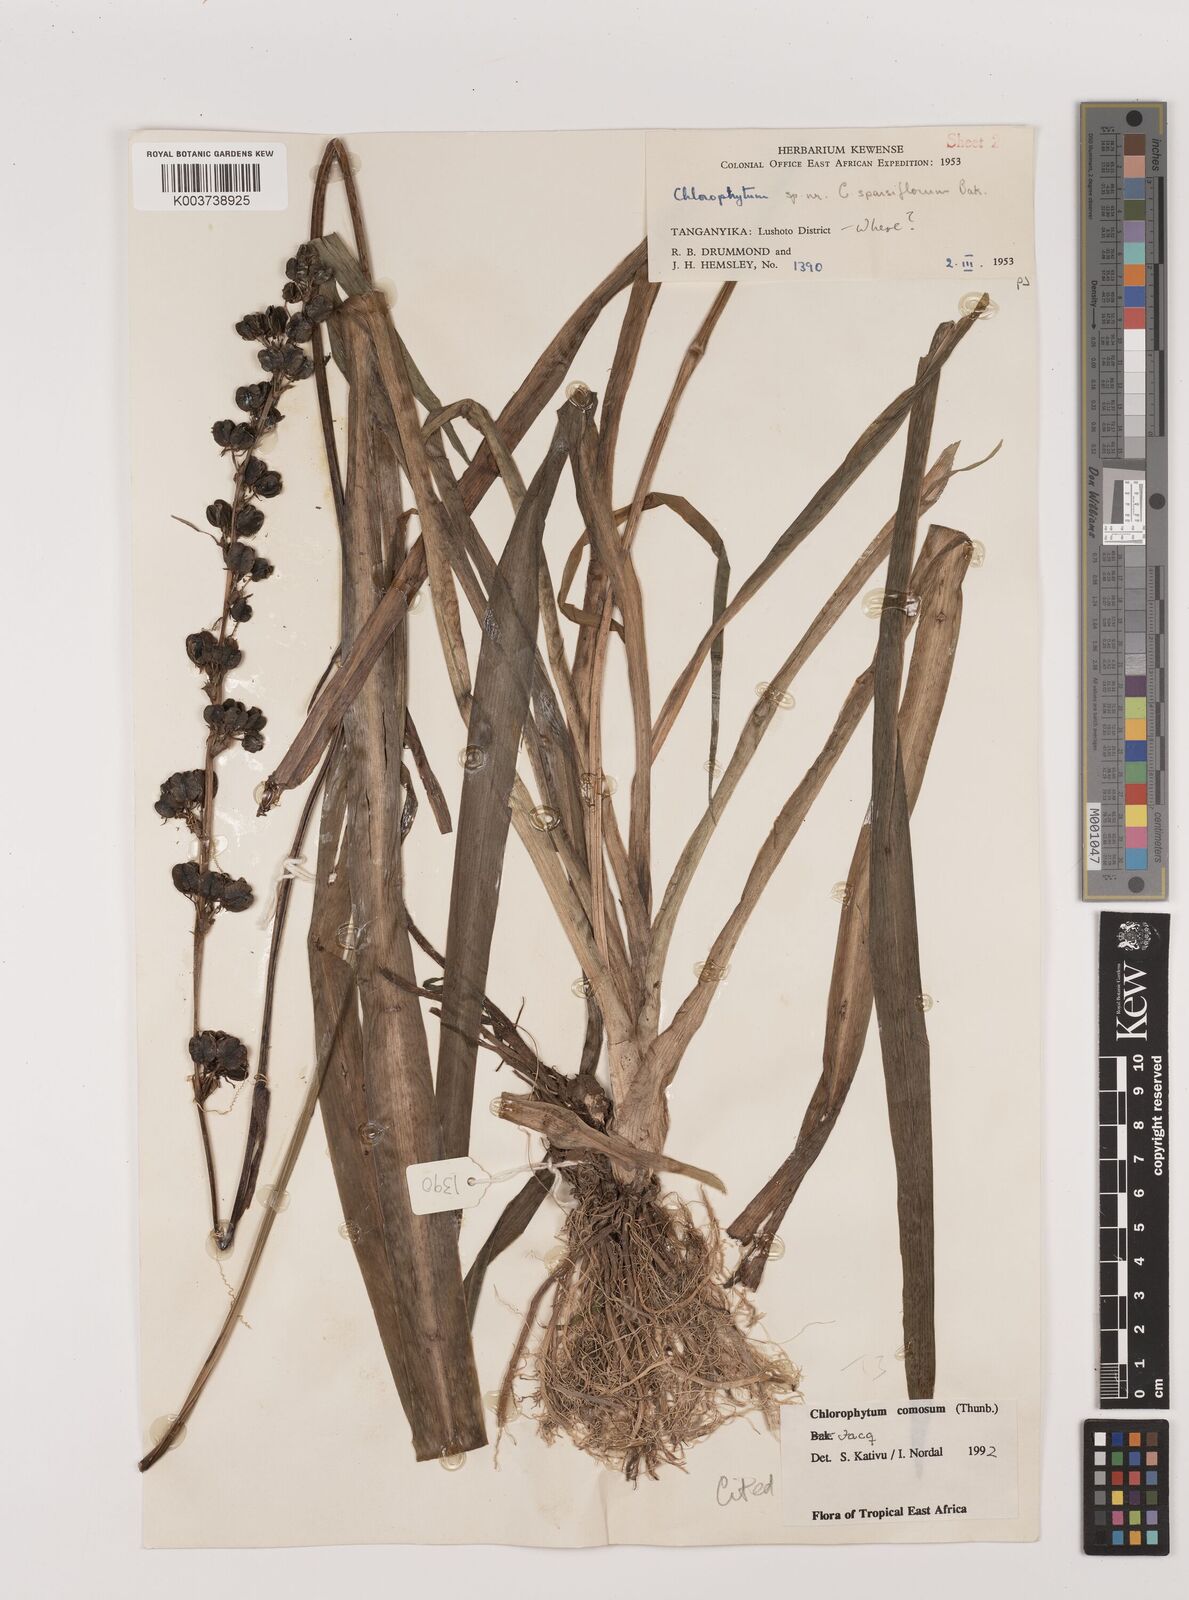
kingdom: Plantae
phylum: Tracheophyta
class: Liliopsida
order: Asparagales
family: Asparagaceae
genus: Chlorophytum
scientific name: Chlorophytum comosum
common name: Spider plant
